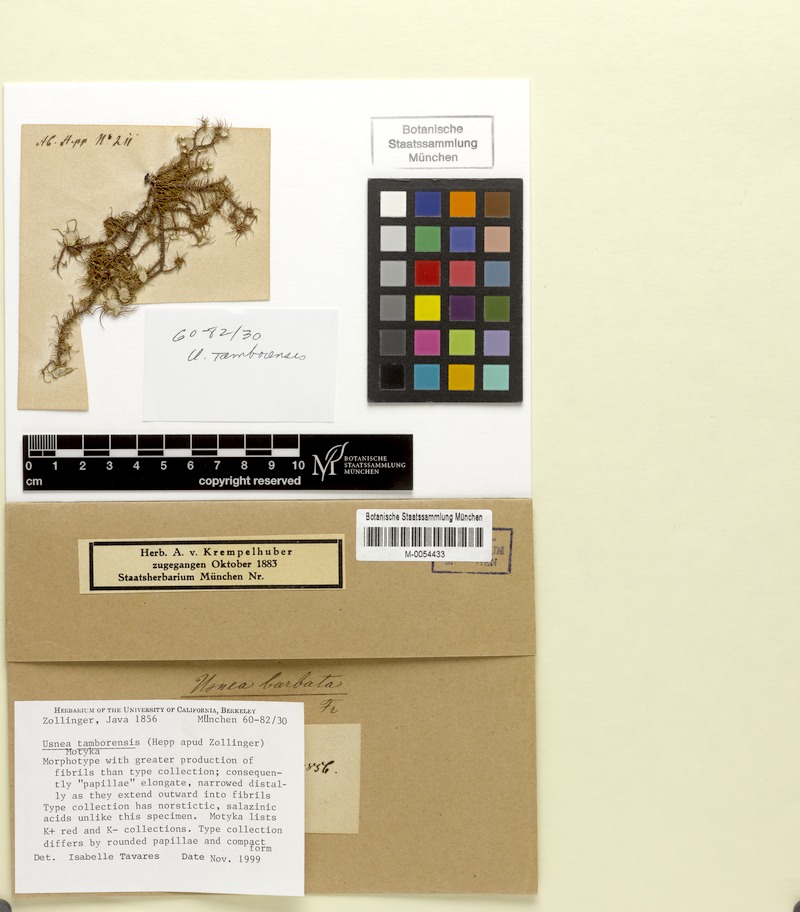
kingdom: Fungi
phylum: Ascomycota
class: Lecanoromycetes
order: Lecanorales
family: Parmeliaceae
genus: Usnea
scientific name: Usnea tamborensis
